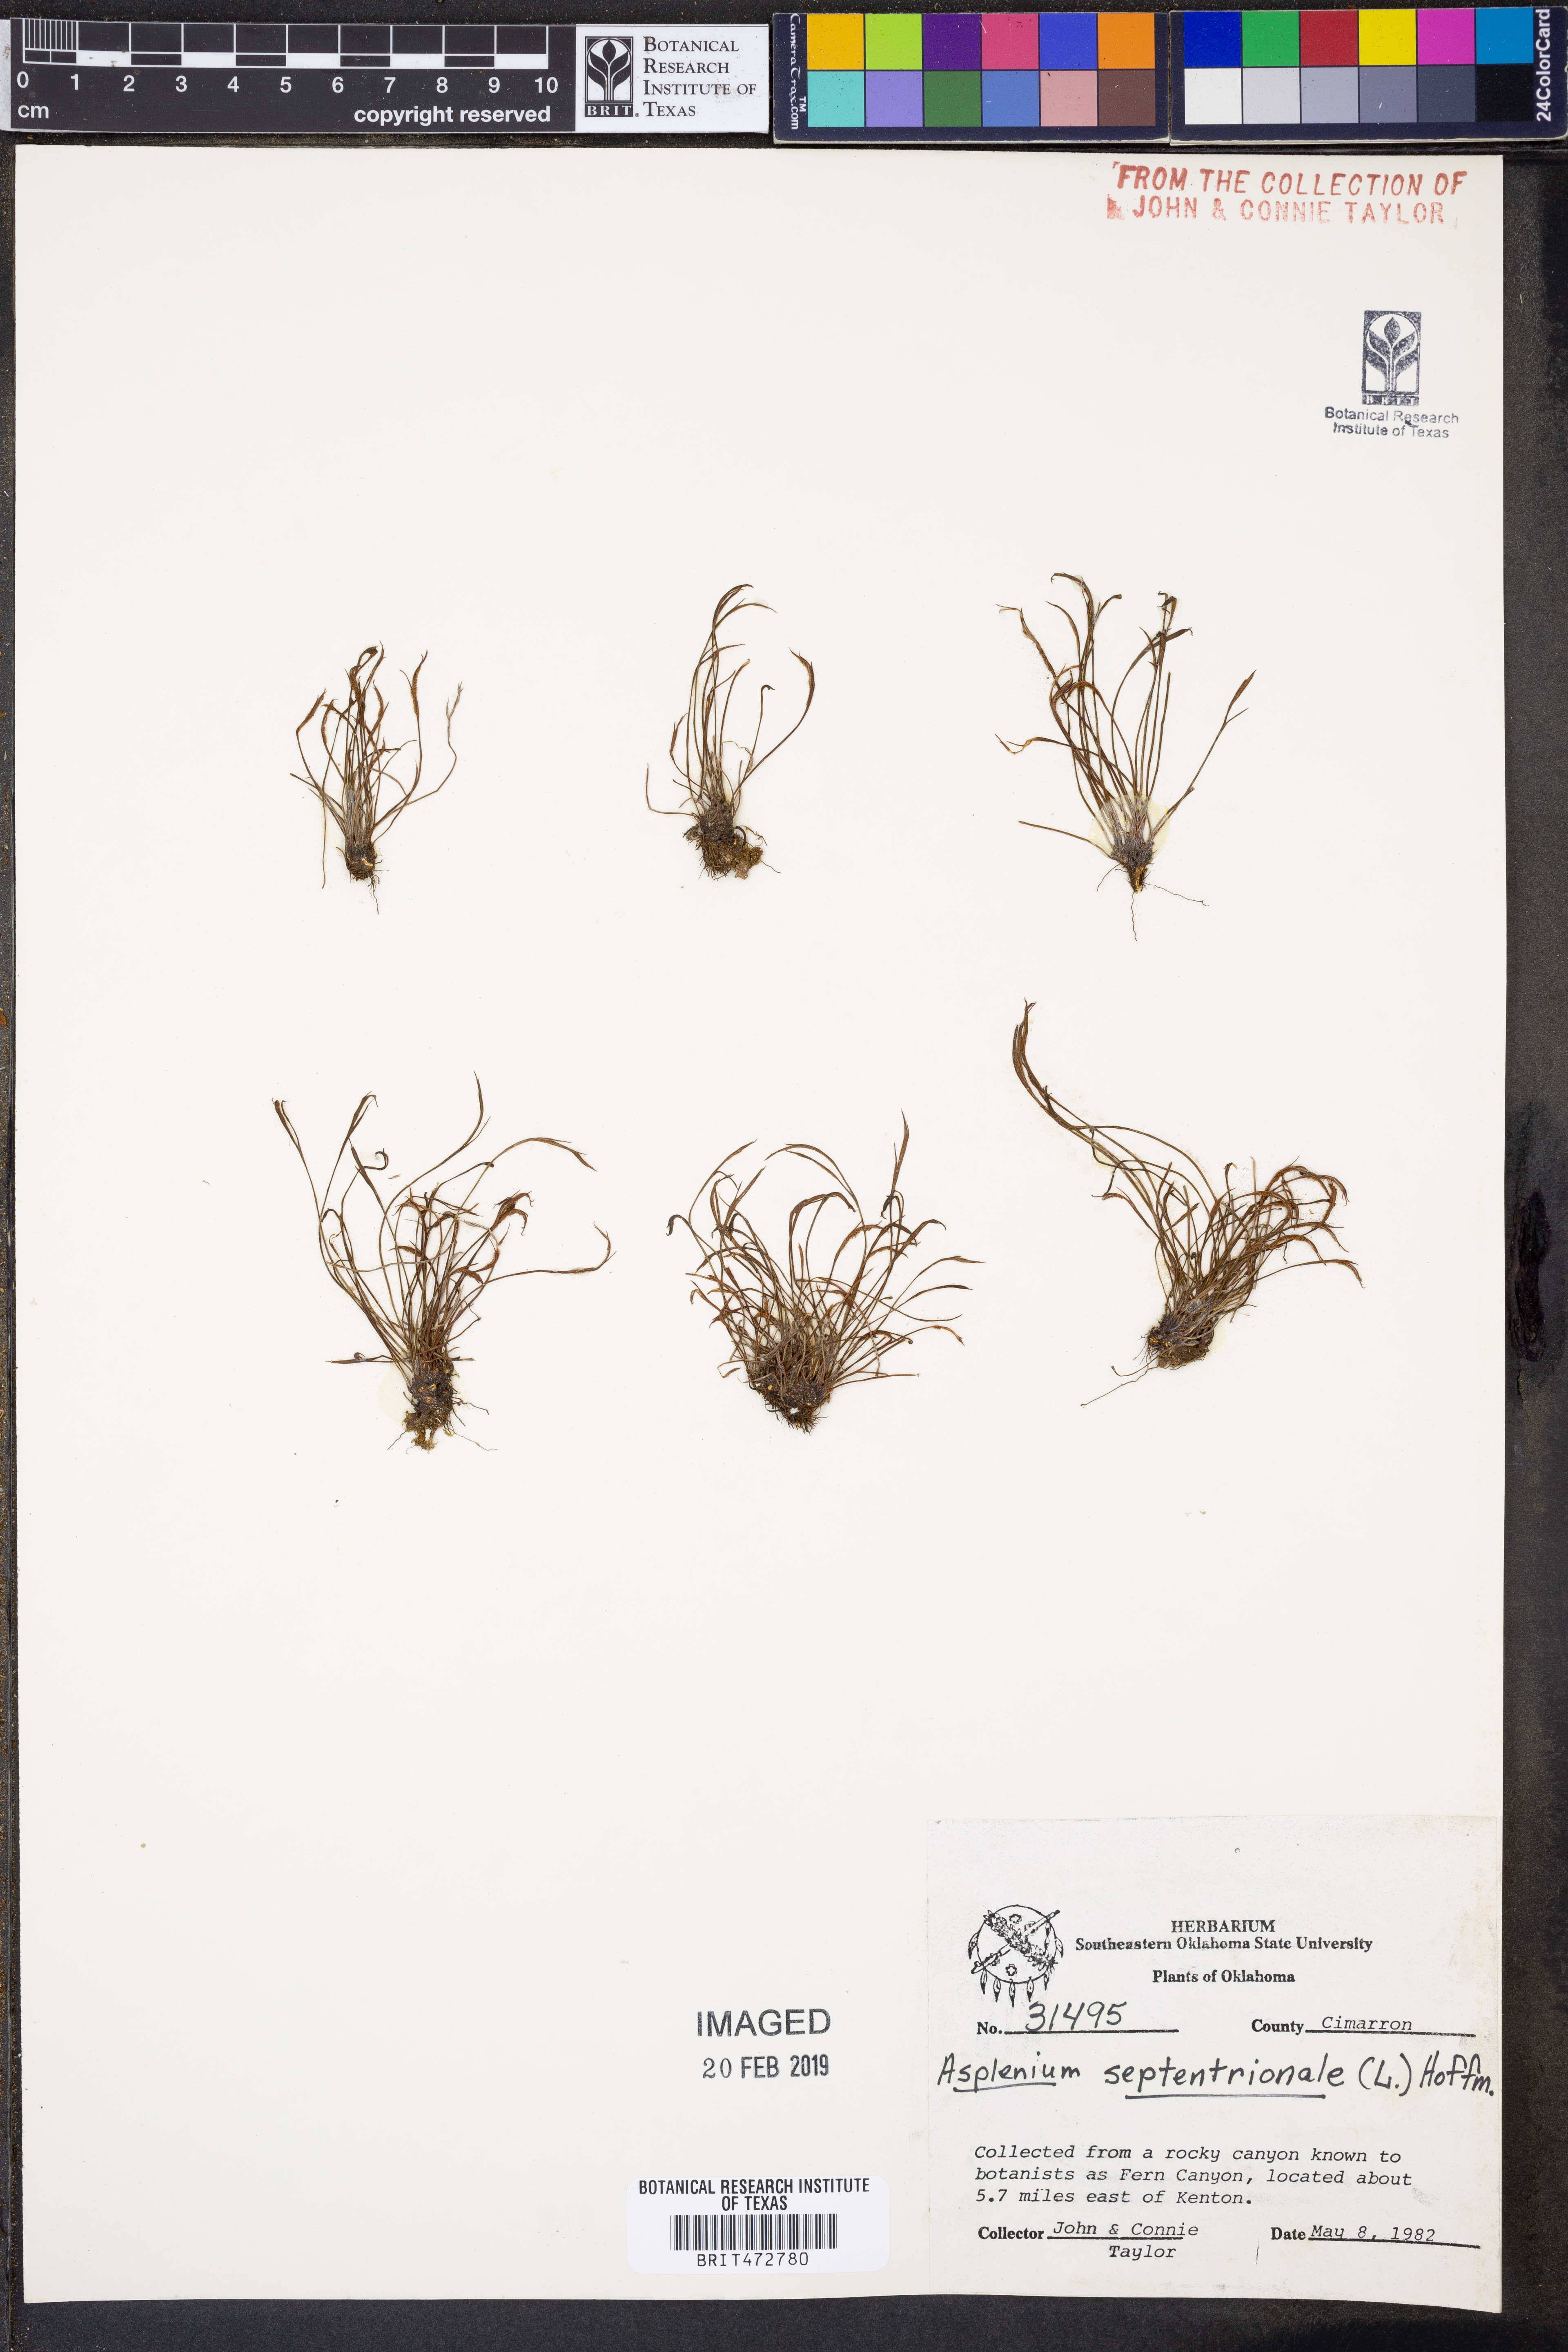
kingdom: Plantae
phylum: Tracheophyta
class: Polypodiopsida
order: Polypodiales
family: Aspleniaceae
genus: Asplenium
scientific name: Asplenium septentrionale
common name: Forked spleenwort
